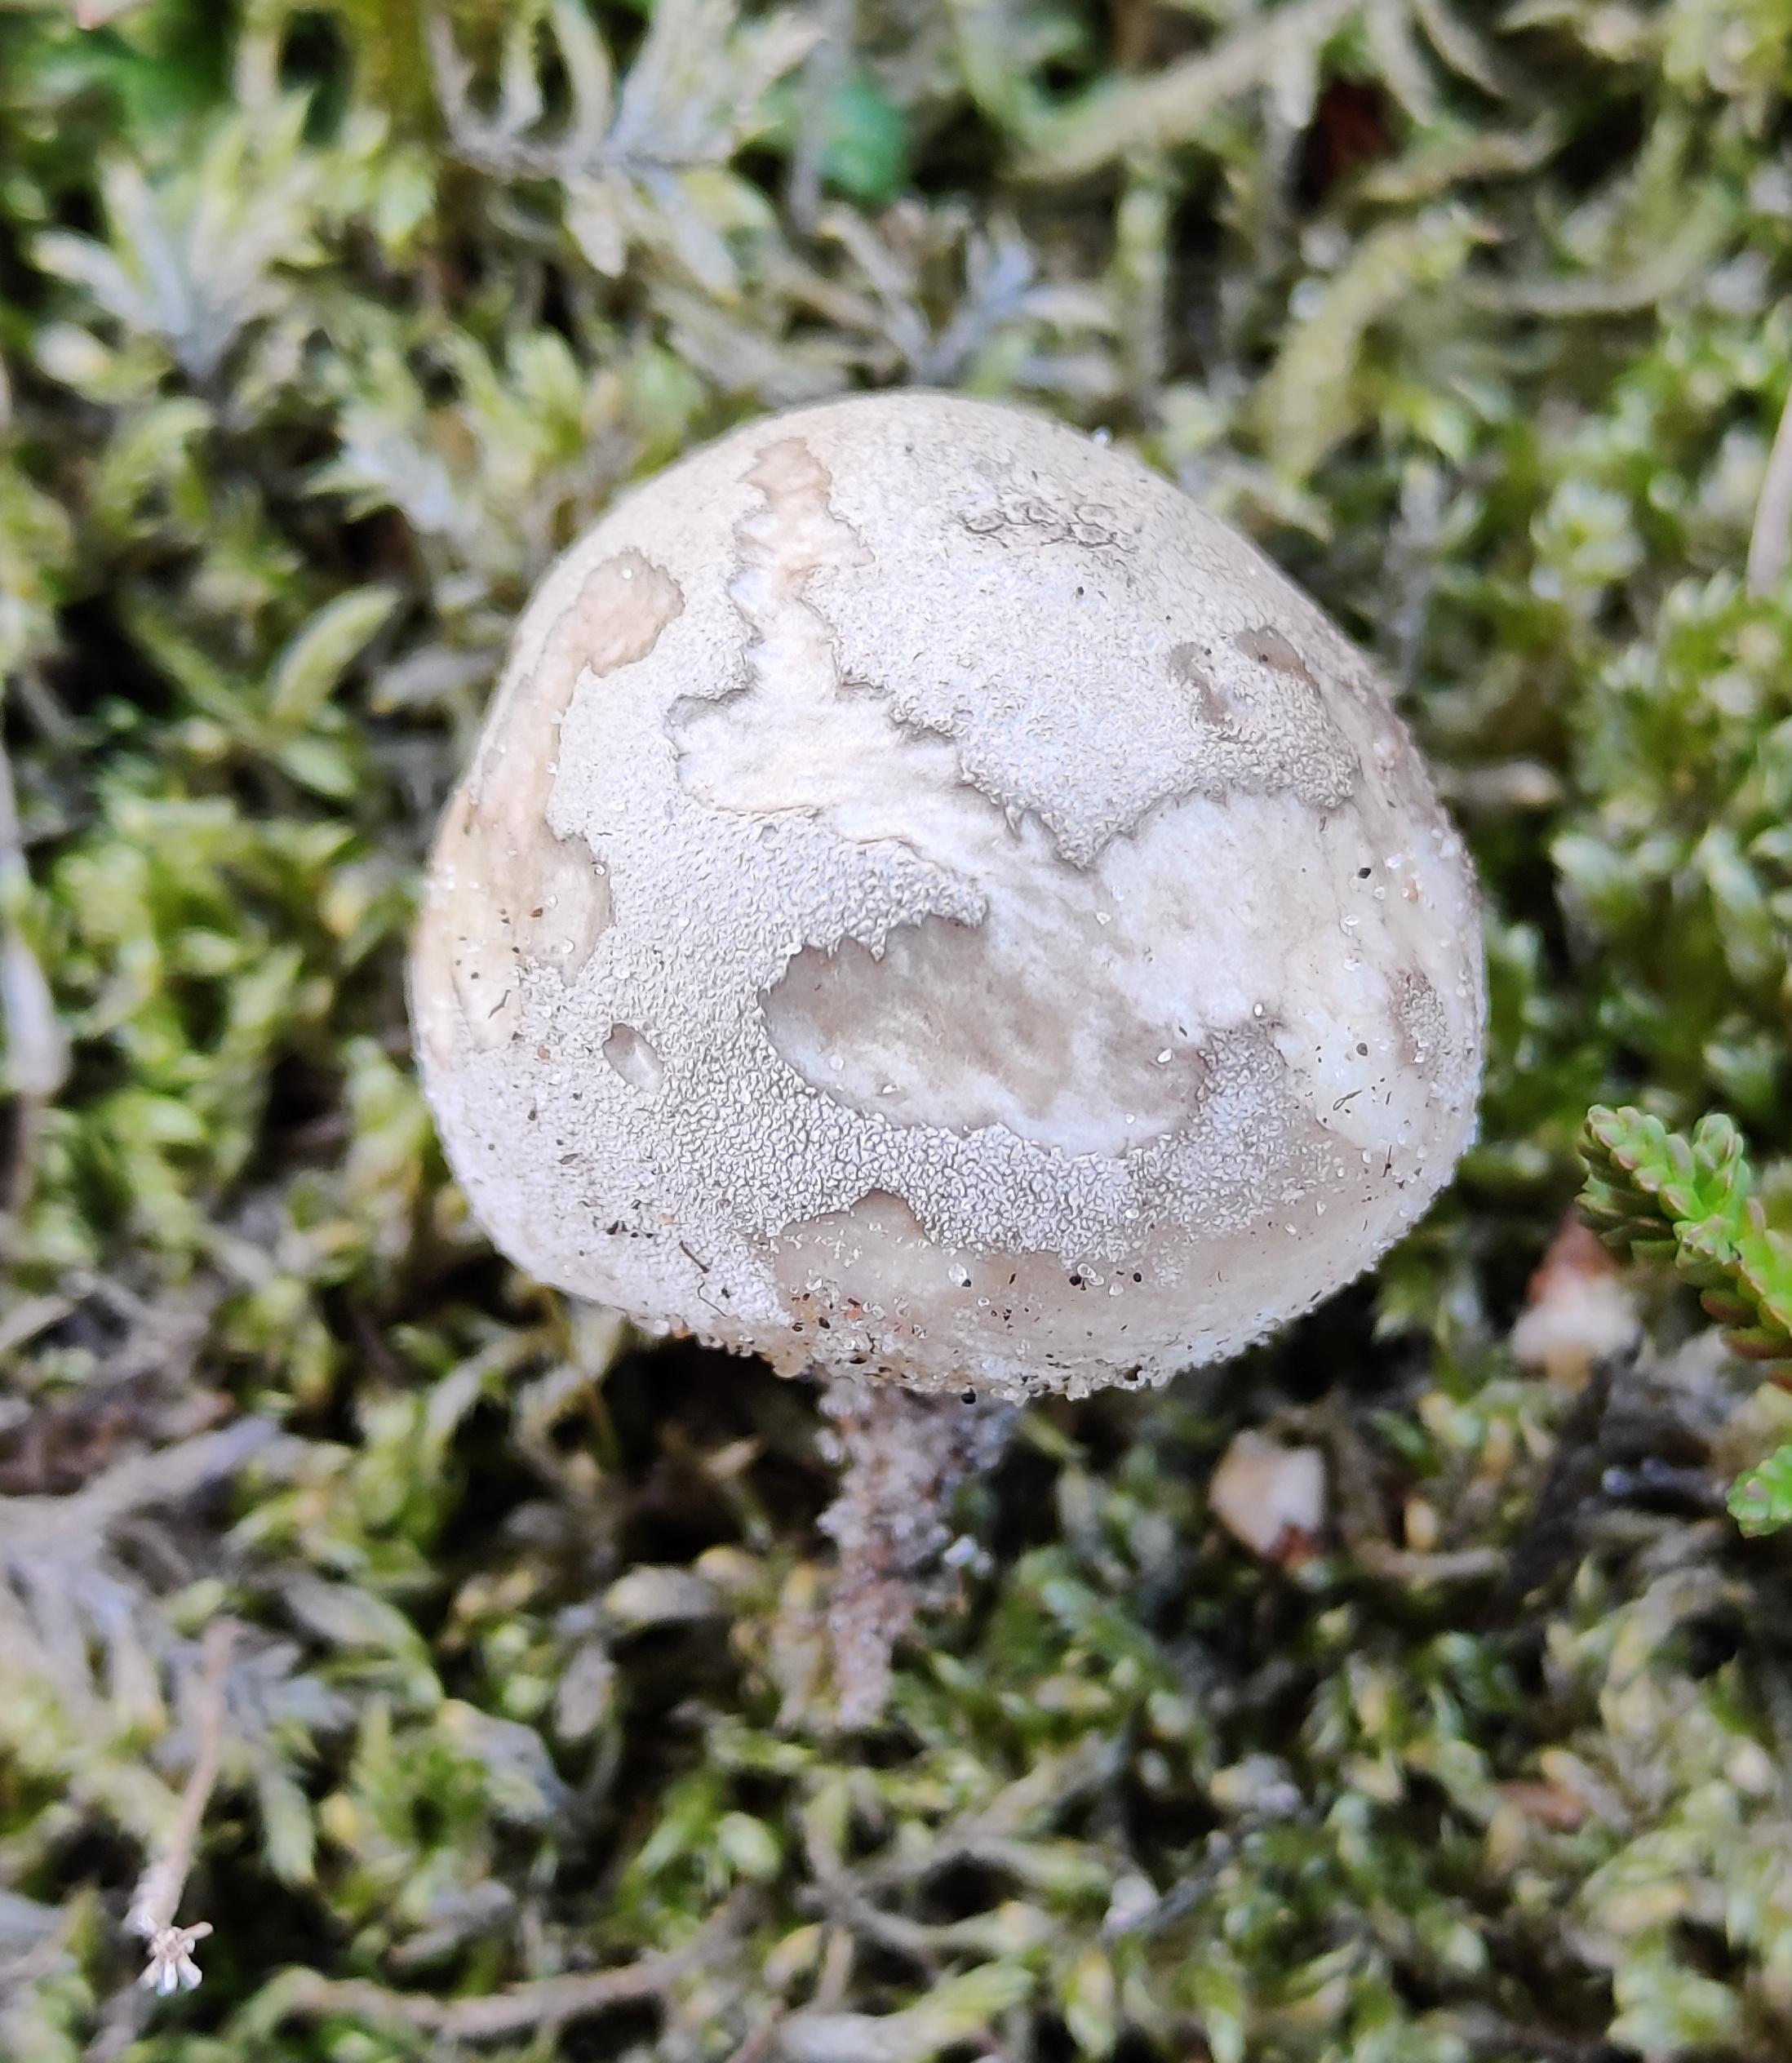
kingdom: Fungi
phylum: Basidiomycota
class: Agaricomycetes
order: Agaricales
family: Lycoperdaceae
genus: Bovista
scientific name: Bovista aestivalis
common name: klit-bovist
